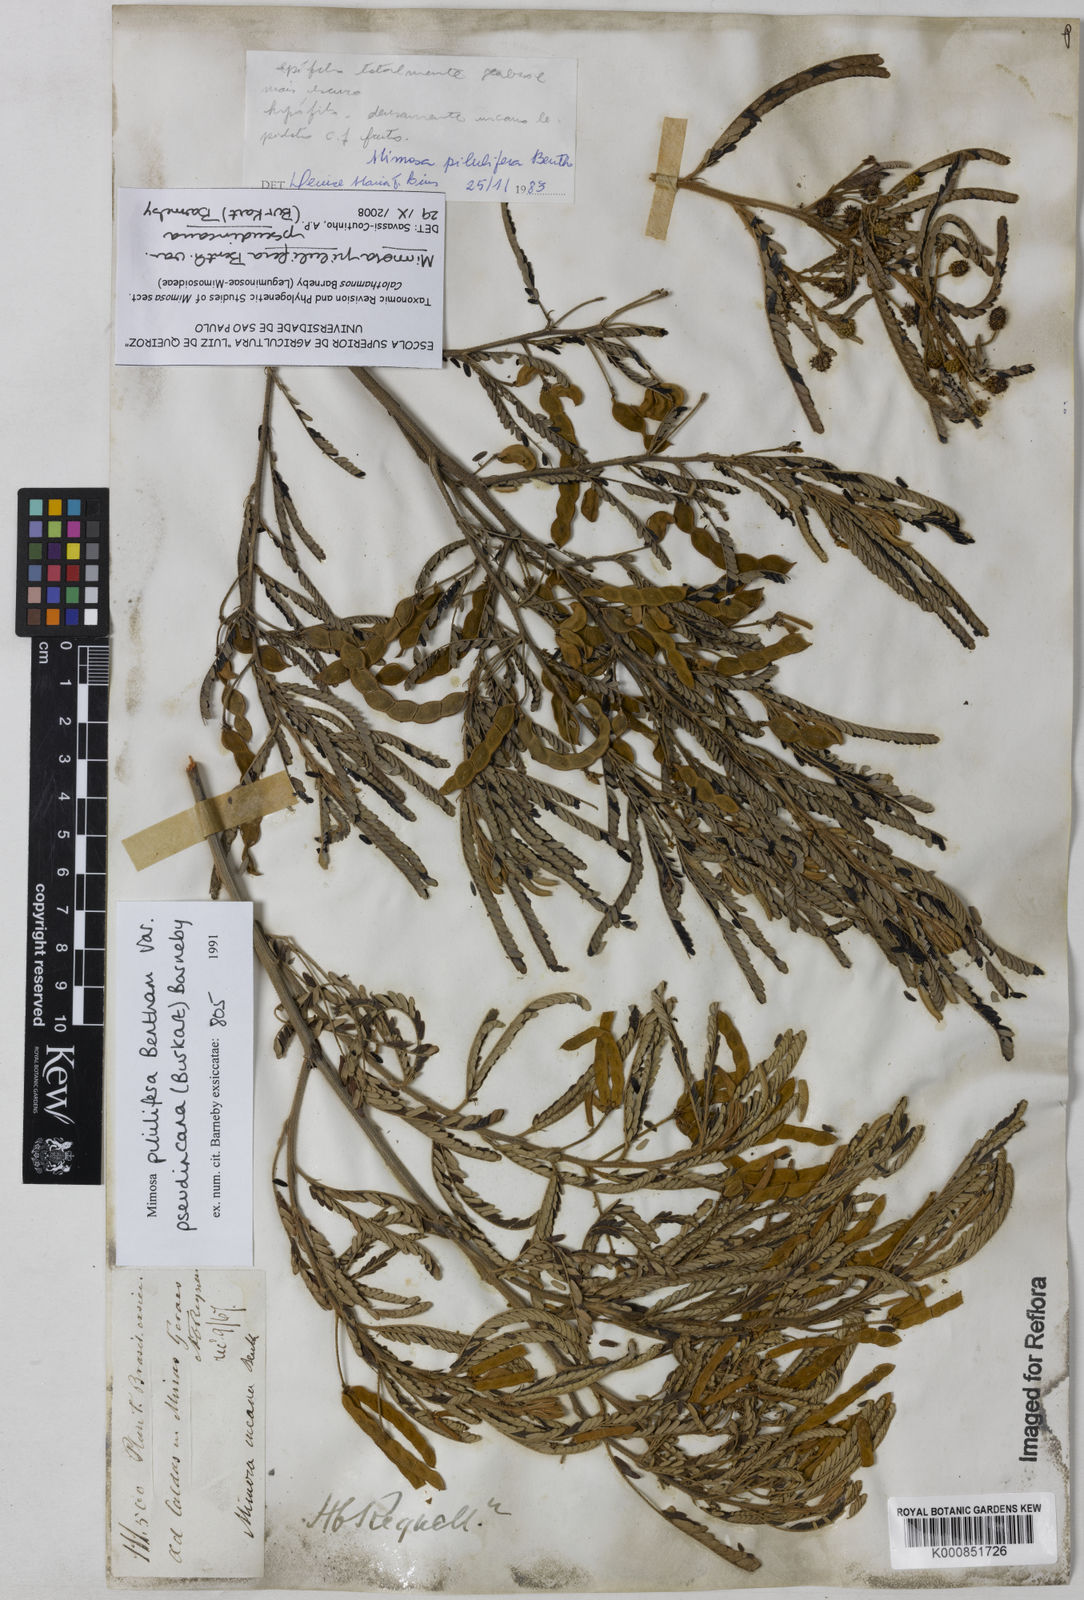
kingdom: Plantae
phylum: Tracheophyta
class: Magnoliopsida
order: Fabales
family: Fabaceae
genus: Mimosa
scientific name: Mimosa pilulifera
